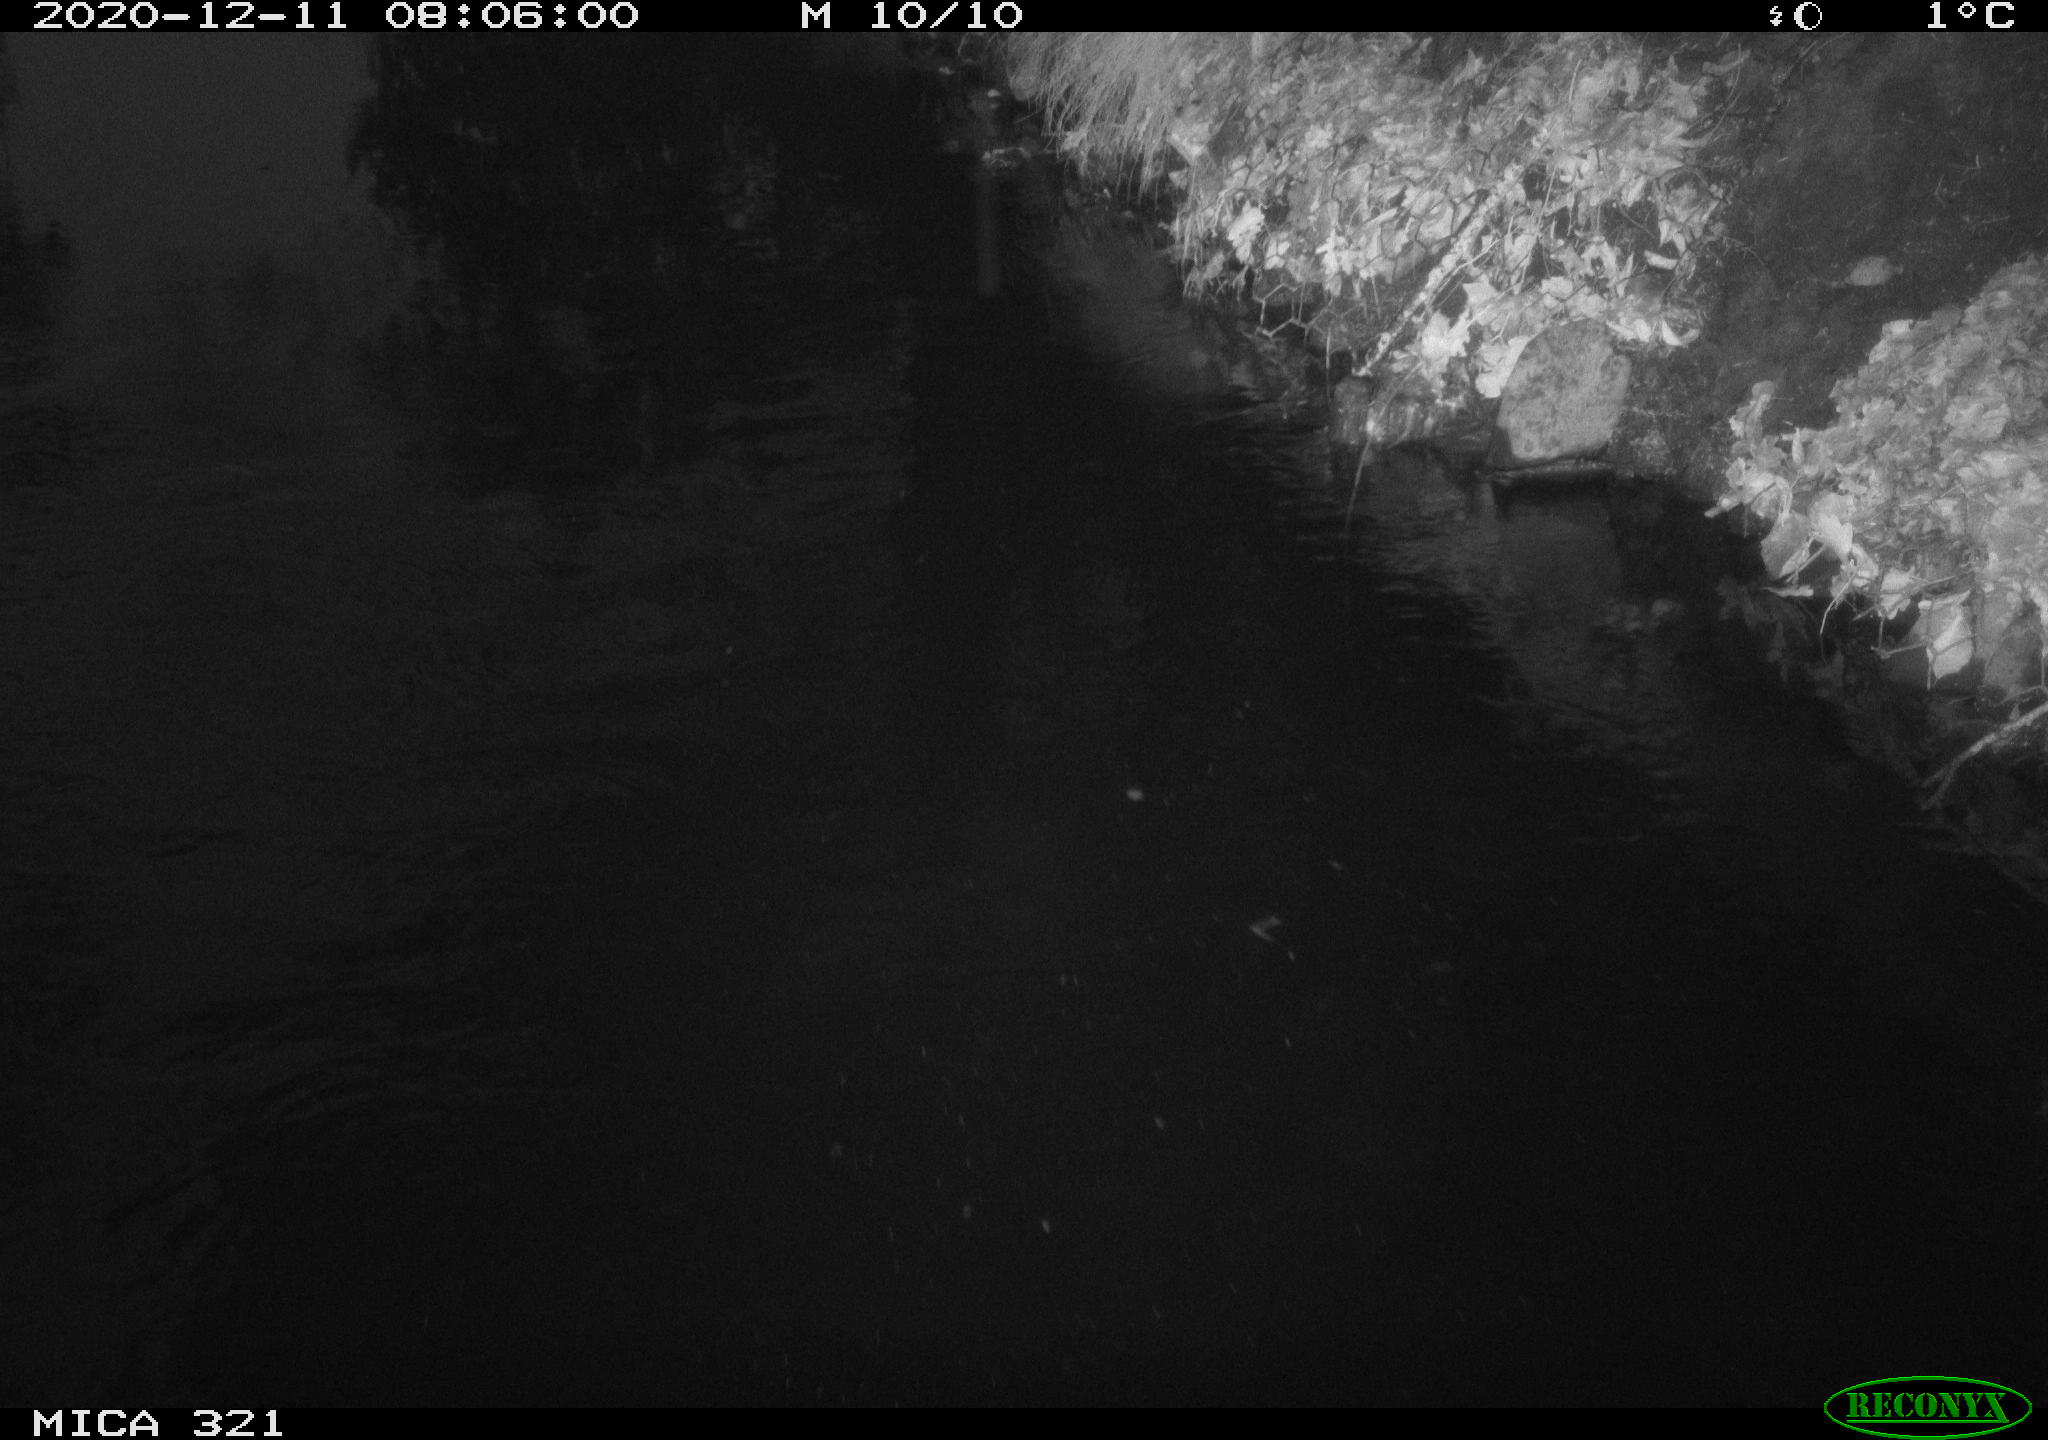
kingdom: Animalia
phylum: Chordata
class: Aves
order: Anseriformes
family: Anatidae
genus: Anas
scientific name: Anas platyrhynchos
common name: Mallard
